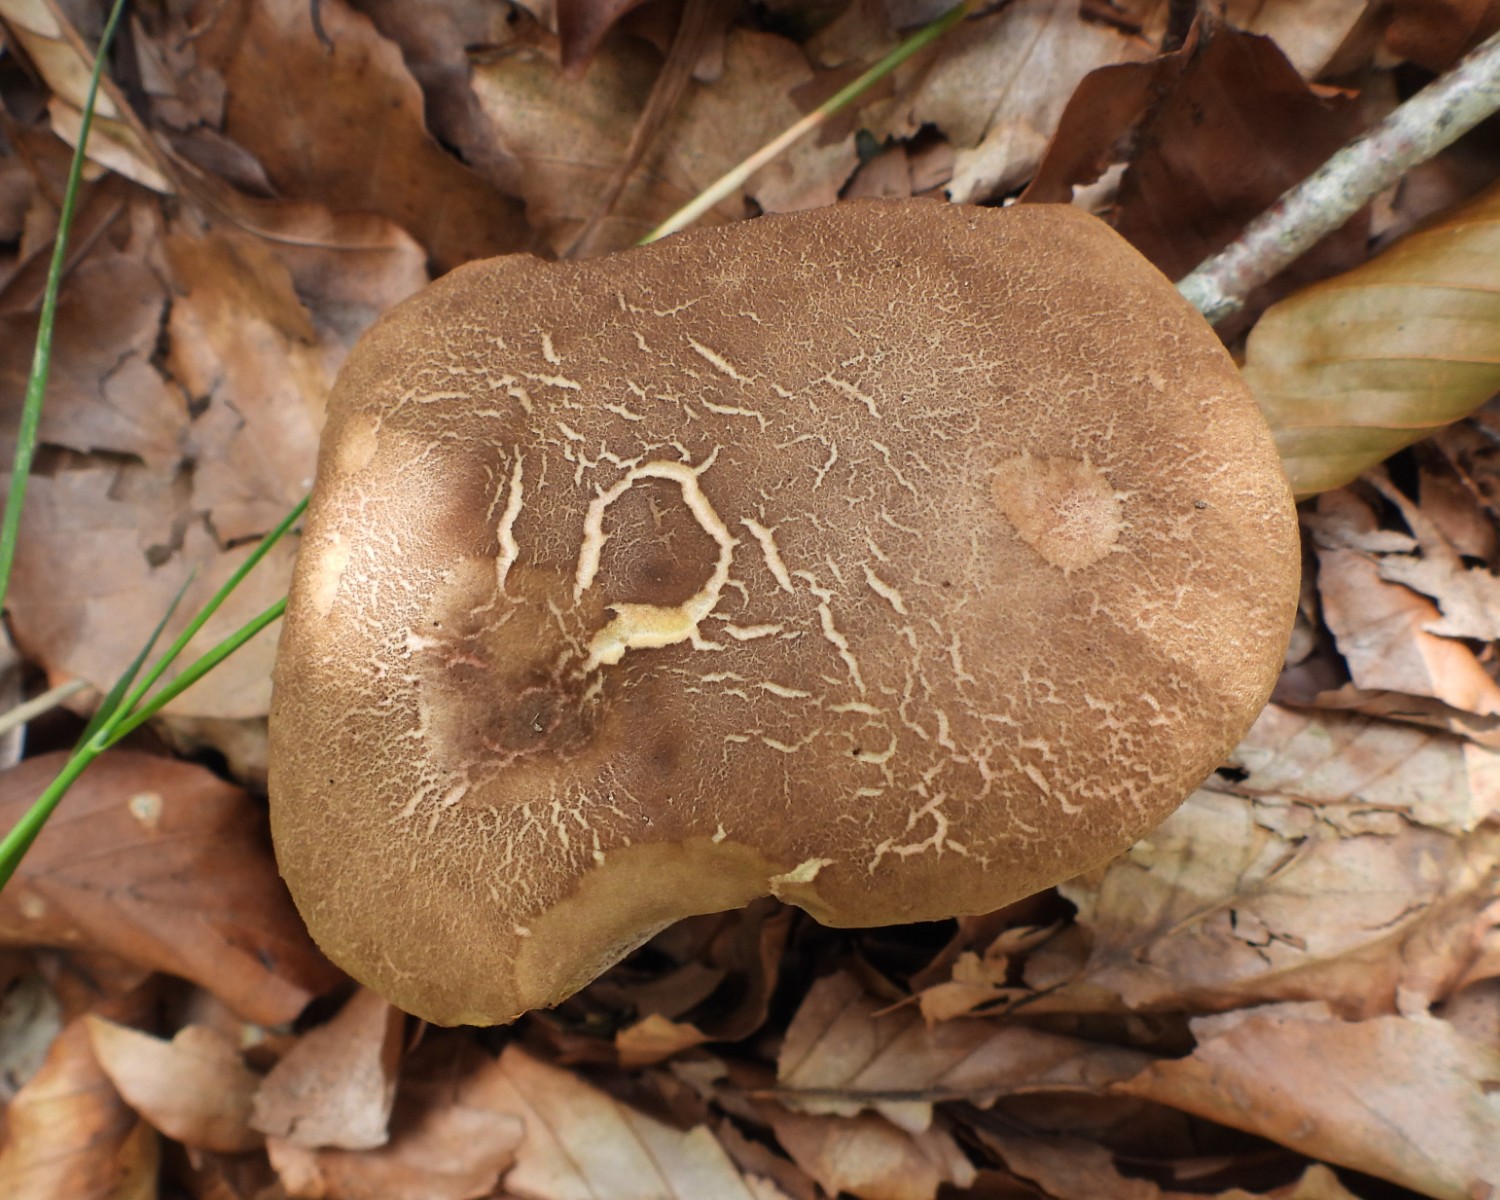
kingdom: Fungi
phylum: Basidiomycota
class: Agaricomycetes
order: Boletales
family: Boletaceae
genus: Xerocomellus
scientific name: Xerocomellus porosporus
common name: hvidsprukken rørhat
